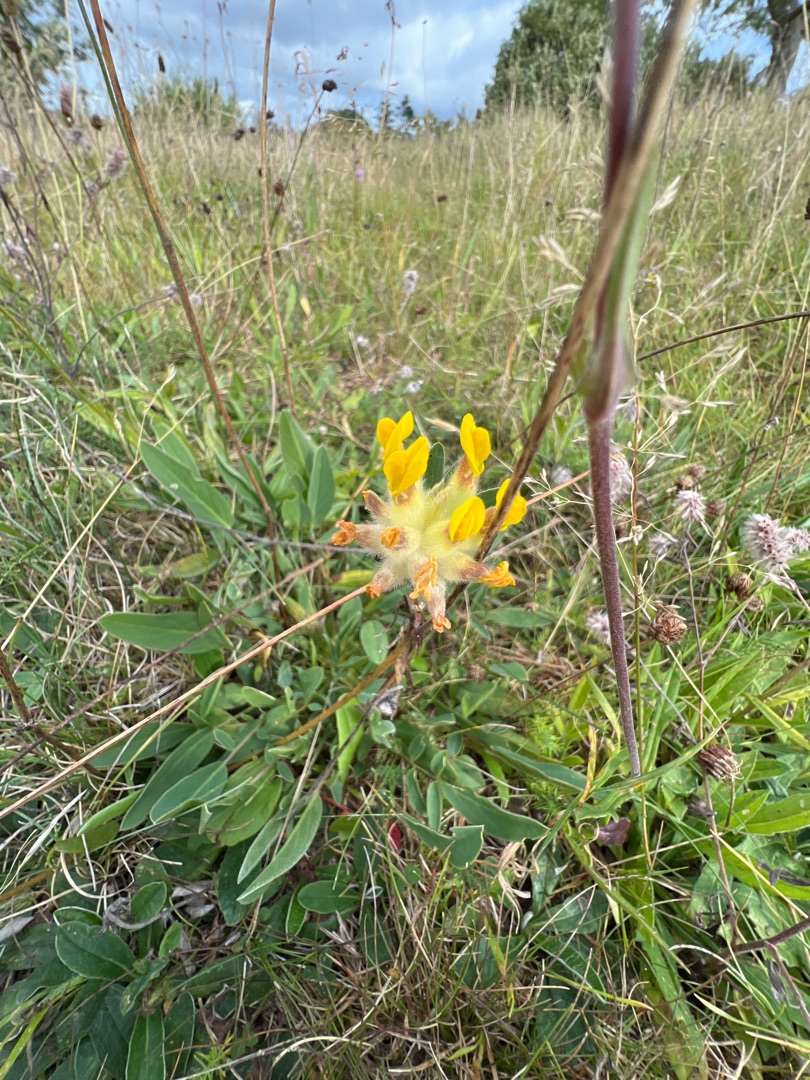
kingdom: Plantae
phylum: Tracheophyta
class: Magnoliopsida
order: Fabales
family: Fabaceae
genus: Anthyllis
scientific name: Anthyllis vulneraria
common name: Rundbælg
